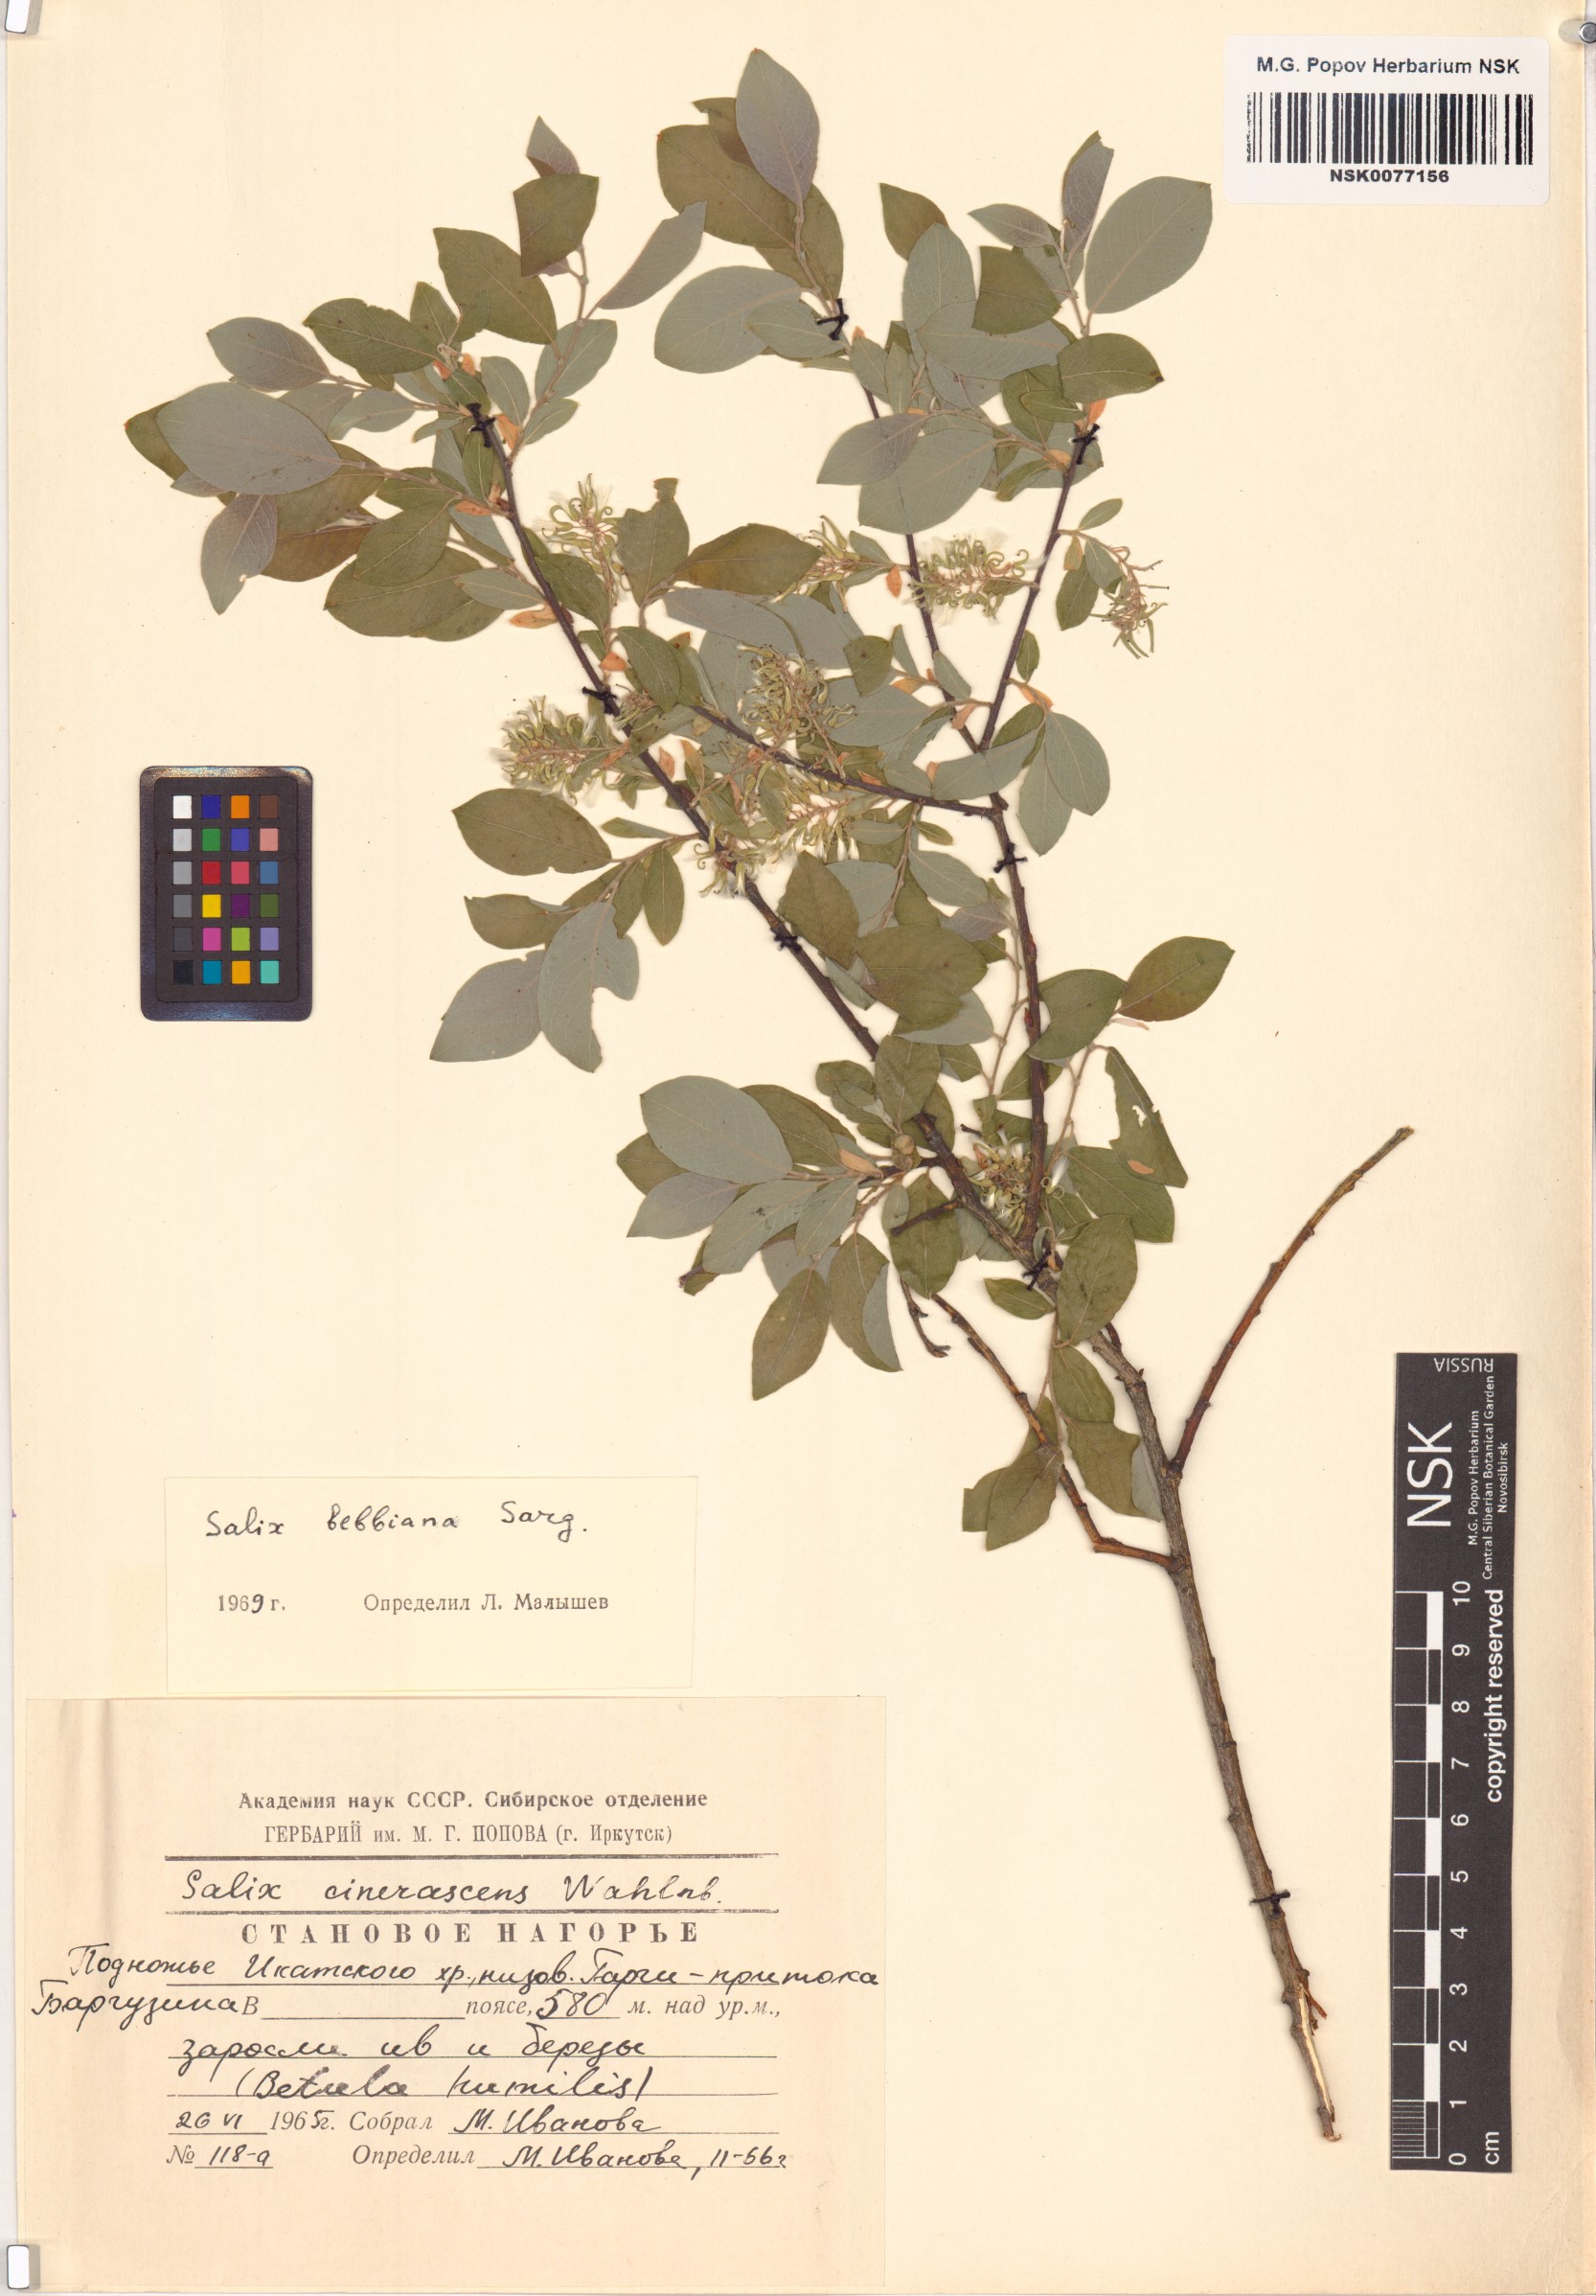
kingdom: Plantae
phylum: Tracheophyta
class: Magnoliopsida
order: Malpighiales
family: Salicaceae
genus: Salix
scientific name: Salix bebbiana
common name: Bebb's willow
